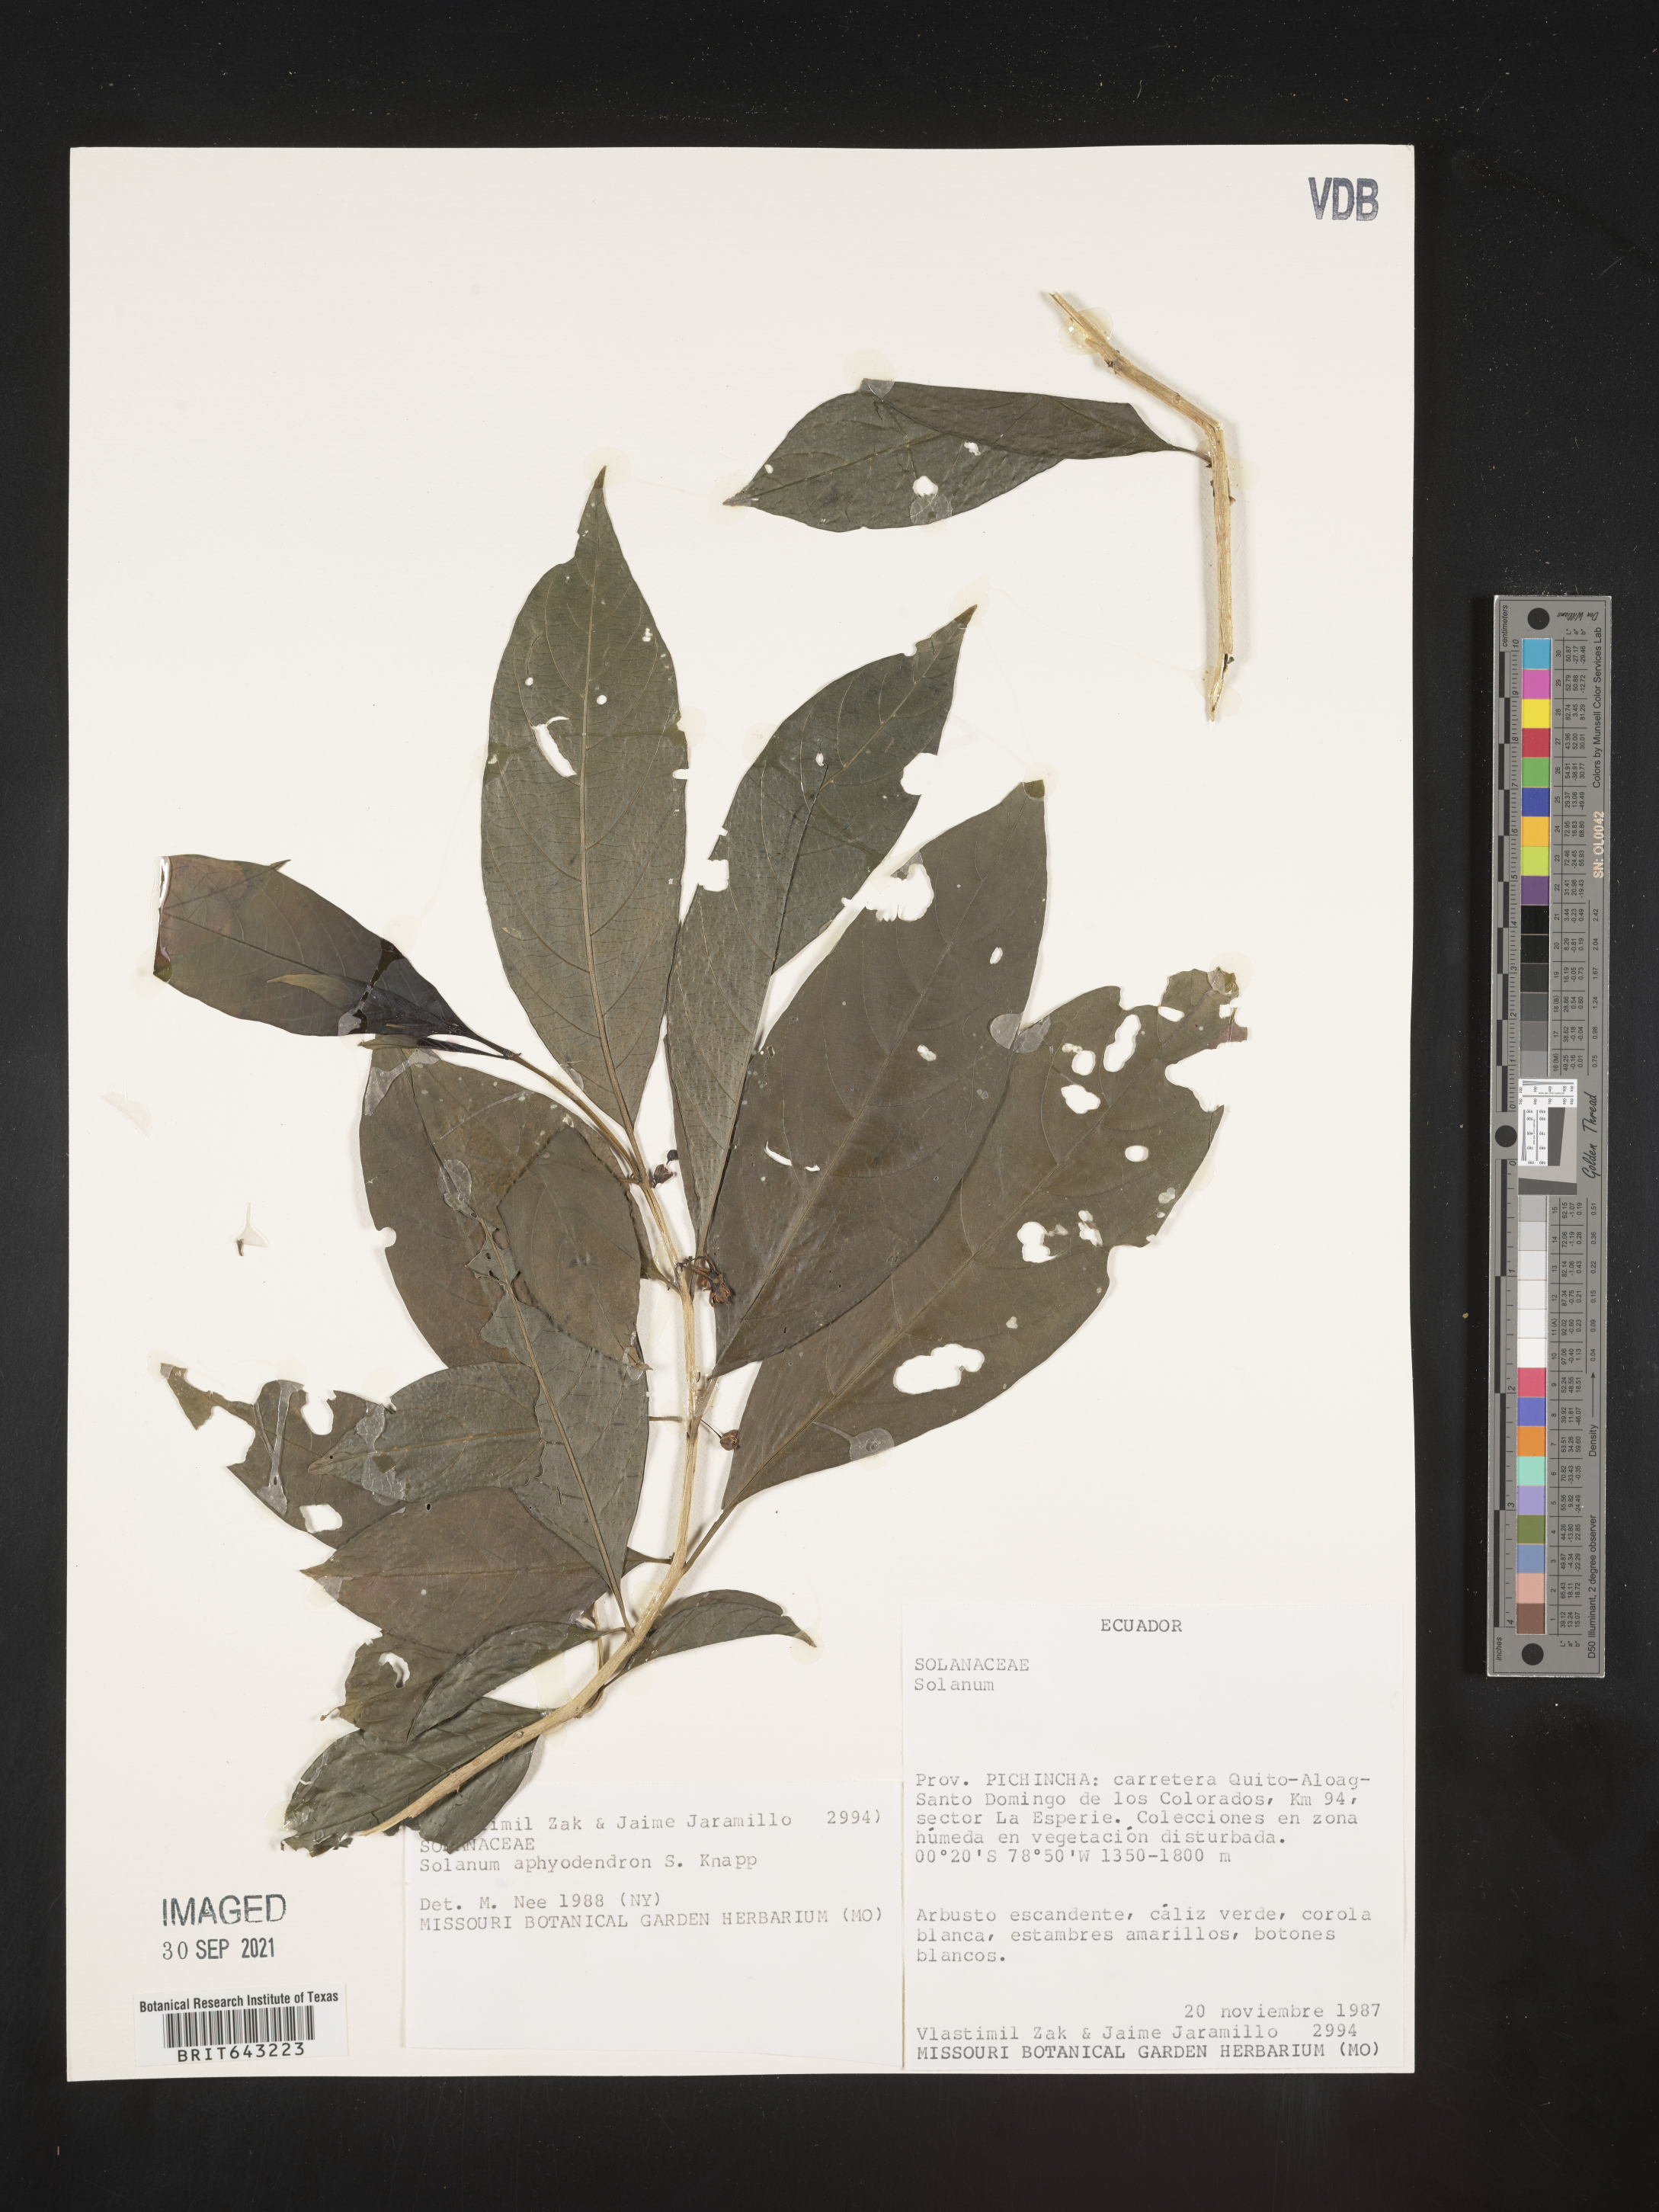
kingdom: Plantae
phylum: Tracheophyta
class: Magnoliopsida
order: Solanales
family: Solanaceae
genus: Solanum
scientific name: Solanum
